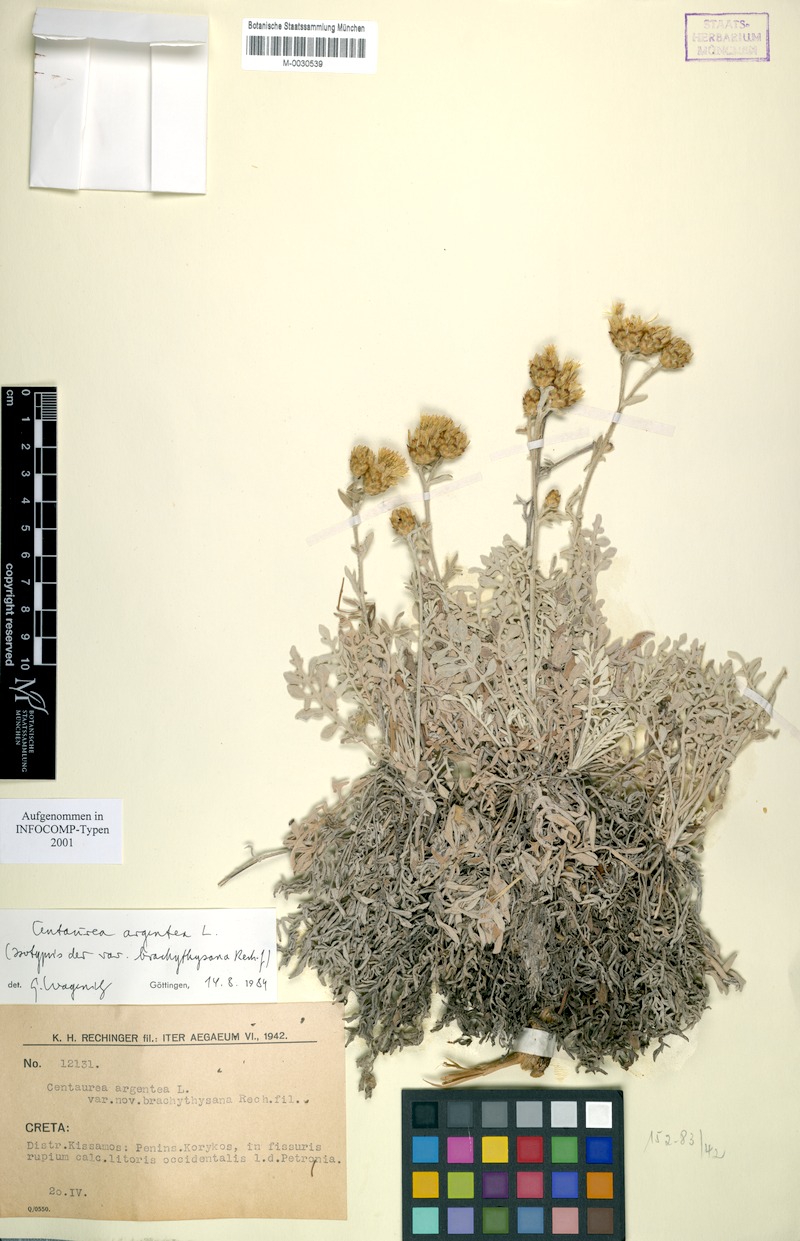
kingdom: Plantae
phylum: Tracheophyta
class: Magnoliopsida
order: Asterales
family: Asteraceae
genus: Centaurea
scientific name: Centaurea argentea
